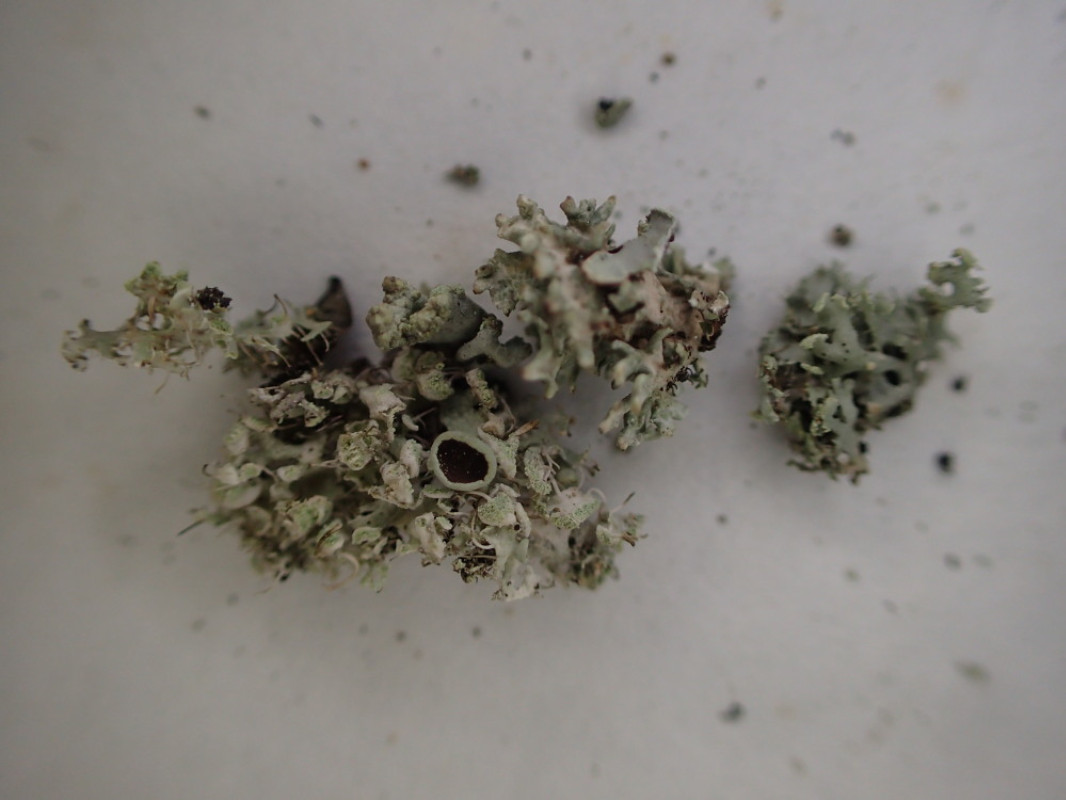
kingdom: Fungi
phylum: Ascomycota
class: Lecanoromycetes
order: Caliciales
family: Physciaceae
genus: Physcia
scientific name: Physcia tenella
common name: spæd rosetlav
